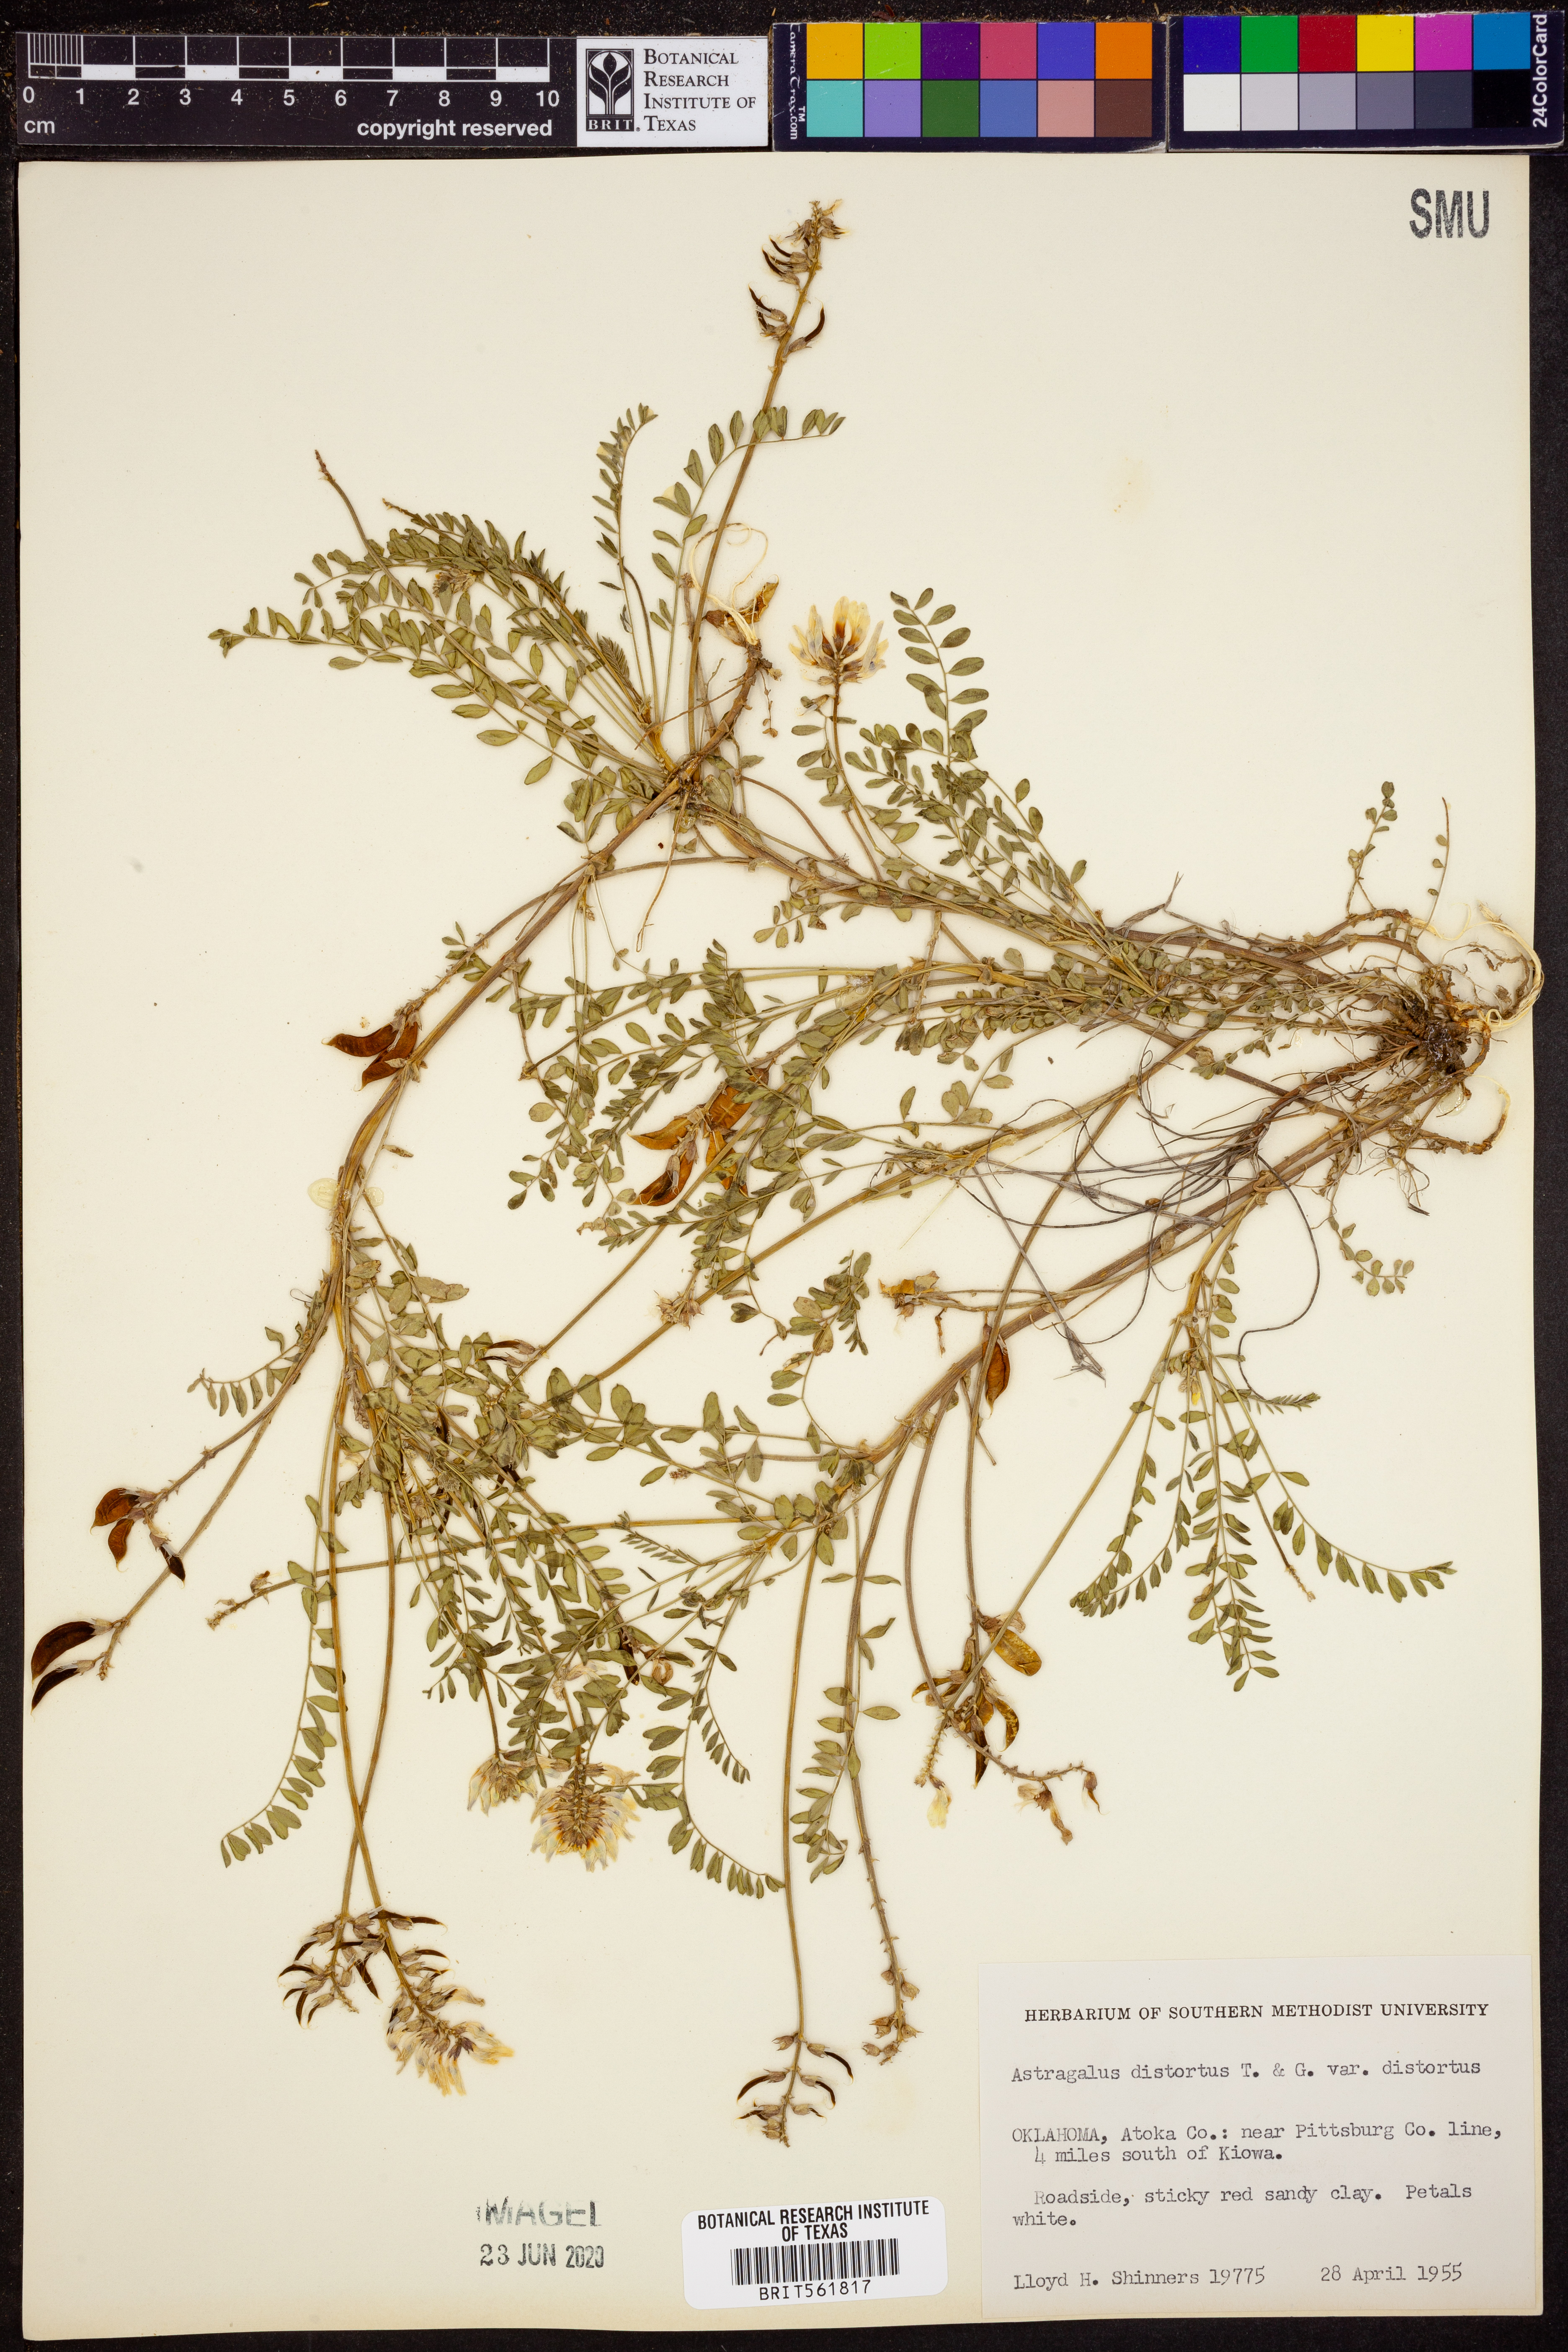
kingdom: Plantae
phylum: Tracheophyta
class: Magnoliopsida
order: Fabales
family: Fabaceae
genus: Astragalus
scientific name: Astragalus distortus
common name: Ozark milk-vetch
